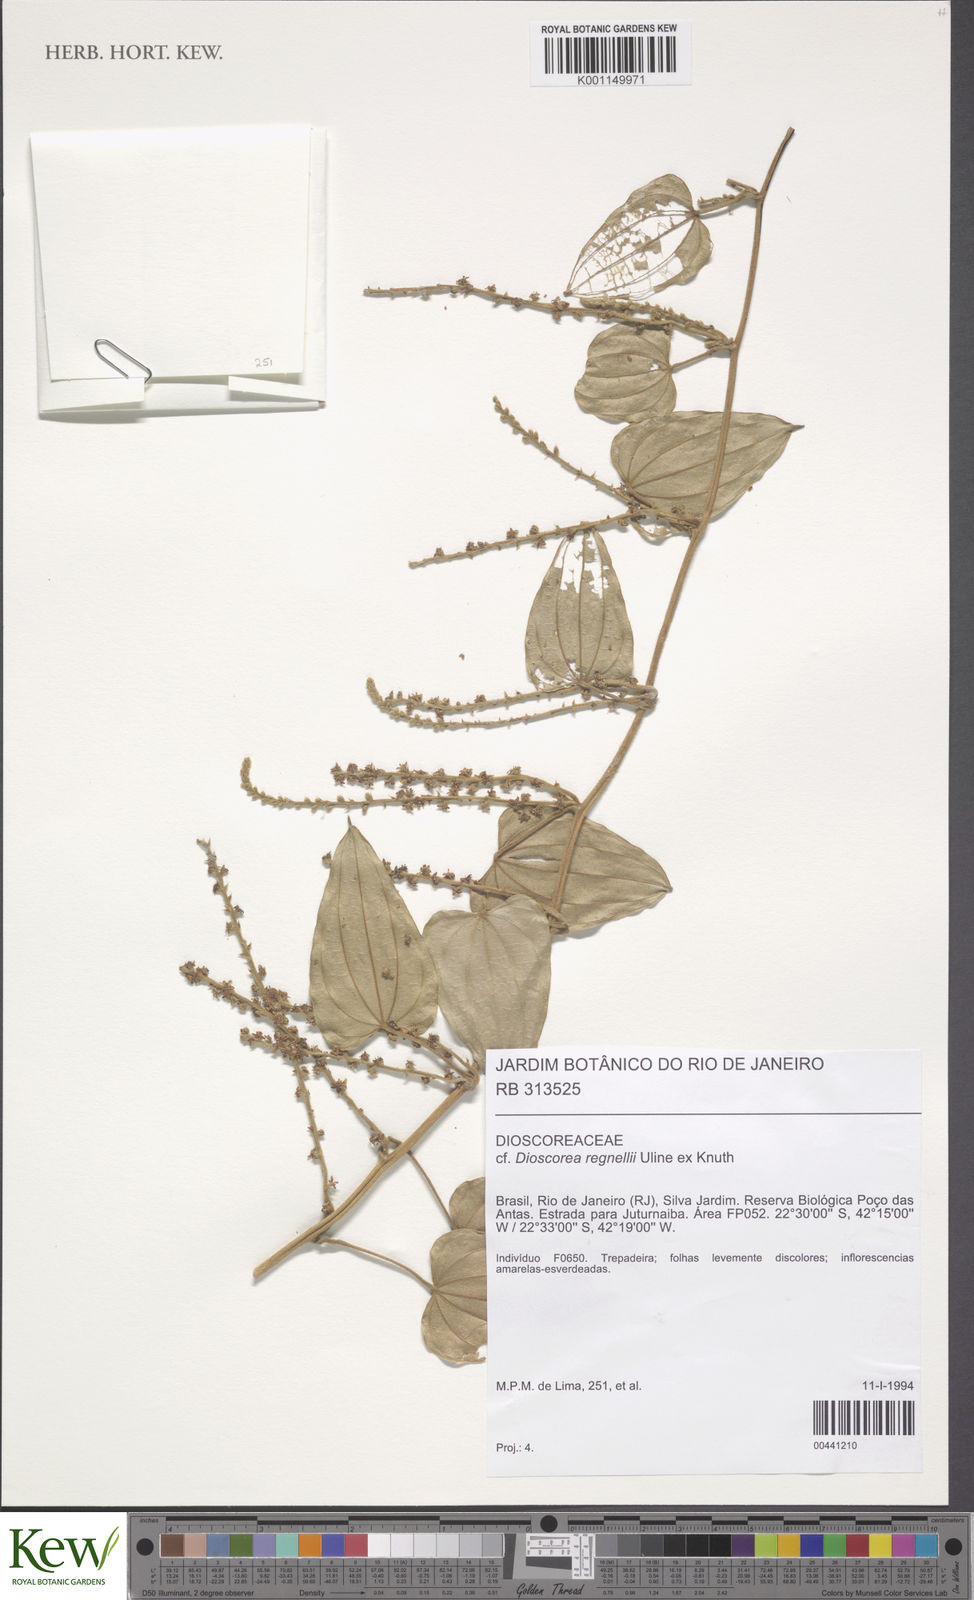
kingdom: Plantae
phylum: Tracheophyta
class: Liliopsida
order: Dioscoreales
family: Dioscoreaceae
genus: Dioscorea
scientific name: Dioscorea mollis
